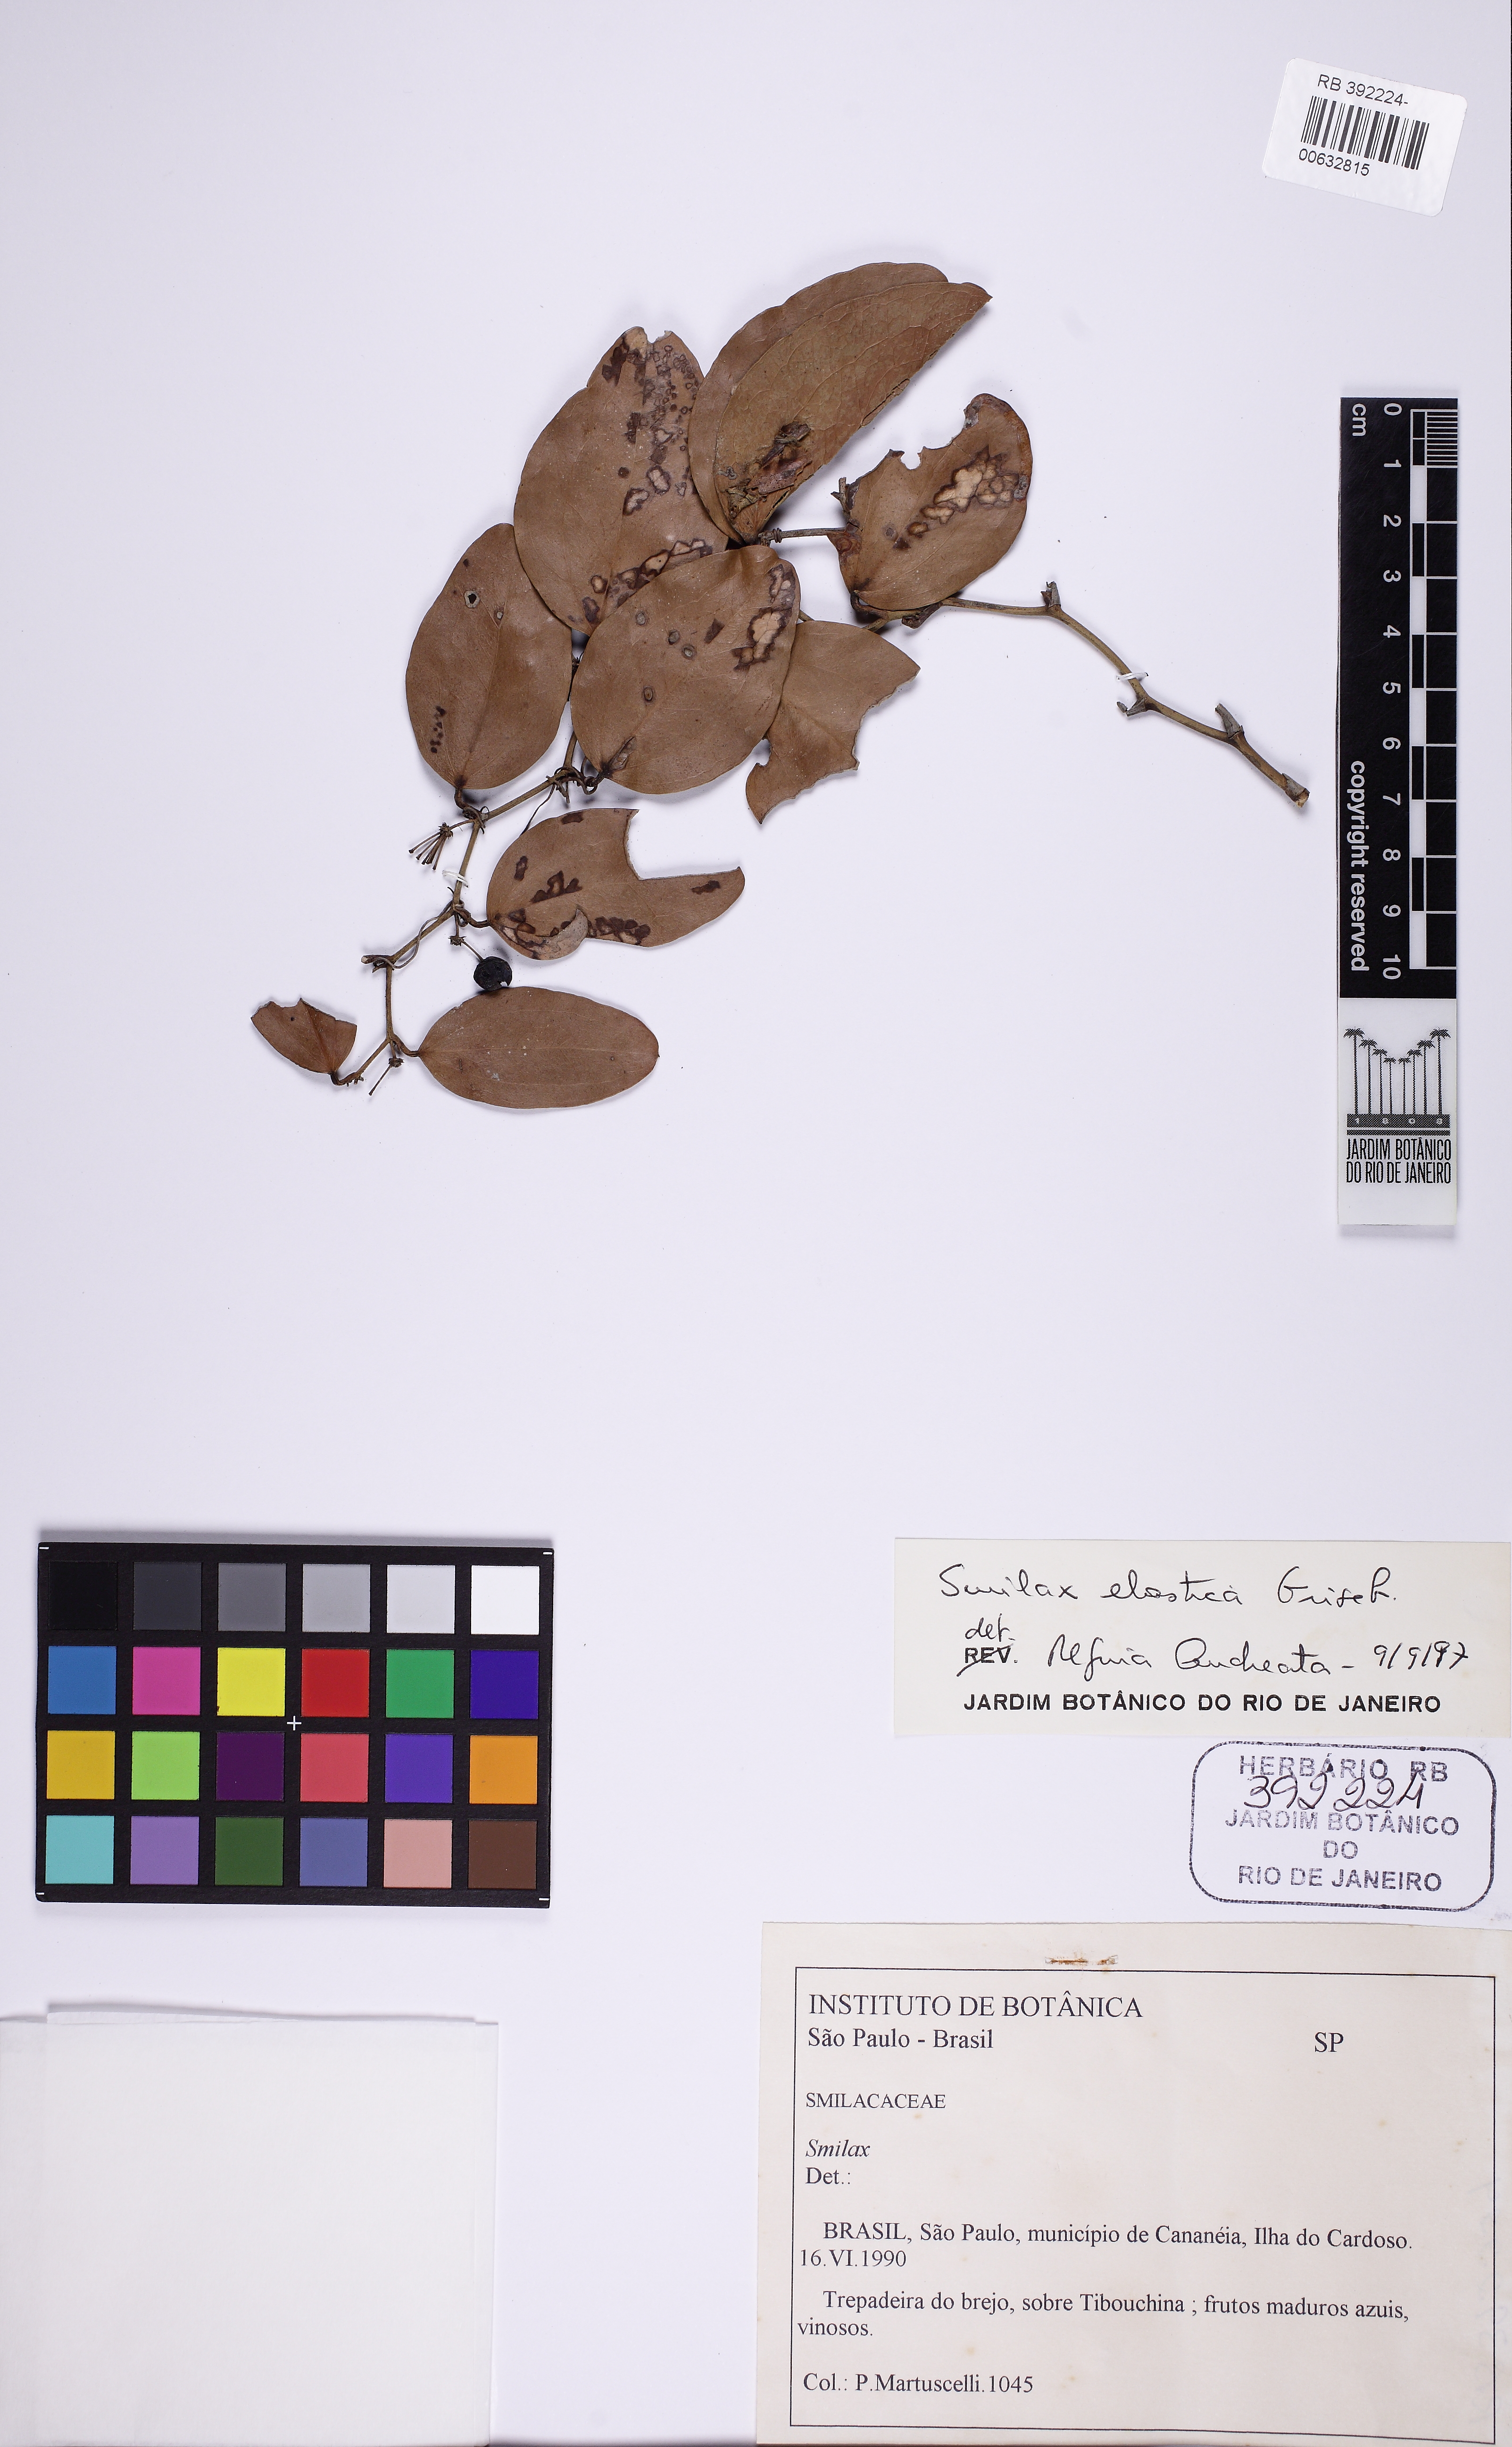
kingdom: Plantae
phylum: Tracheophyta
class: Liliopsida
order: Liliales
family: Smilacaceae
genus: Smilax
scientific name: Smilax elastica
